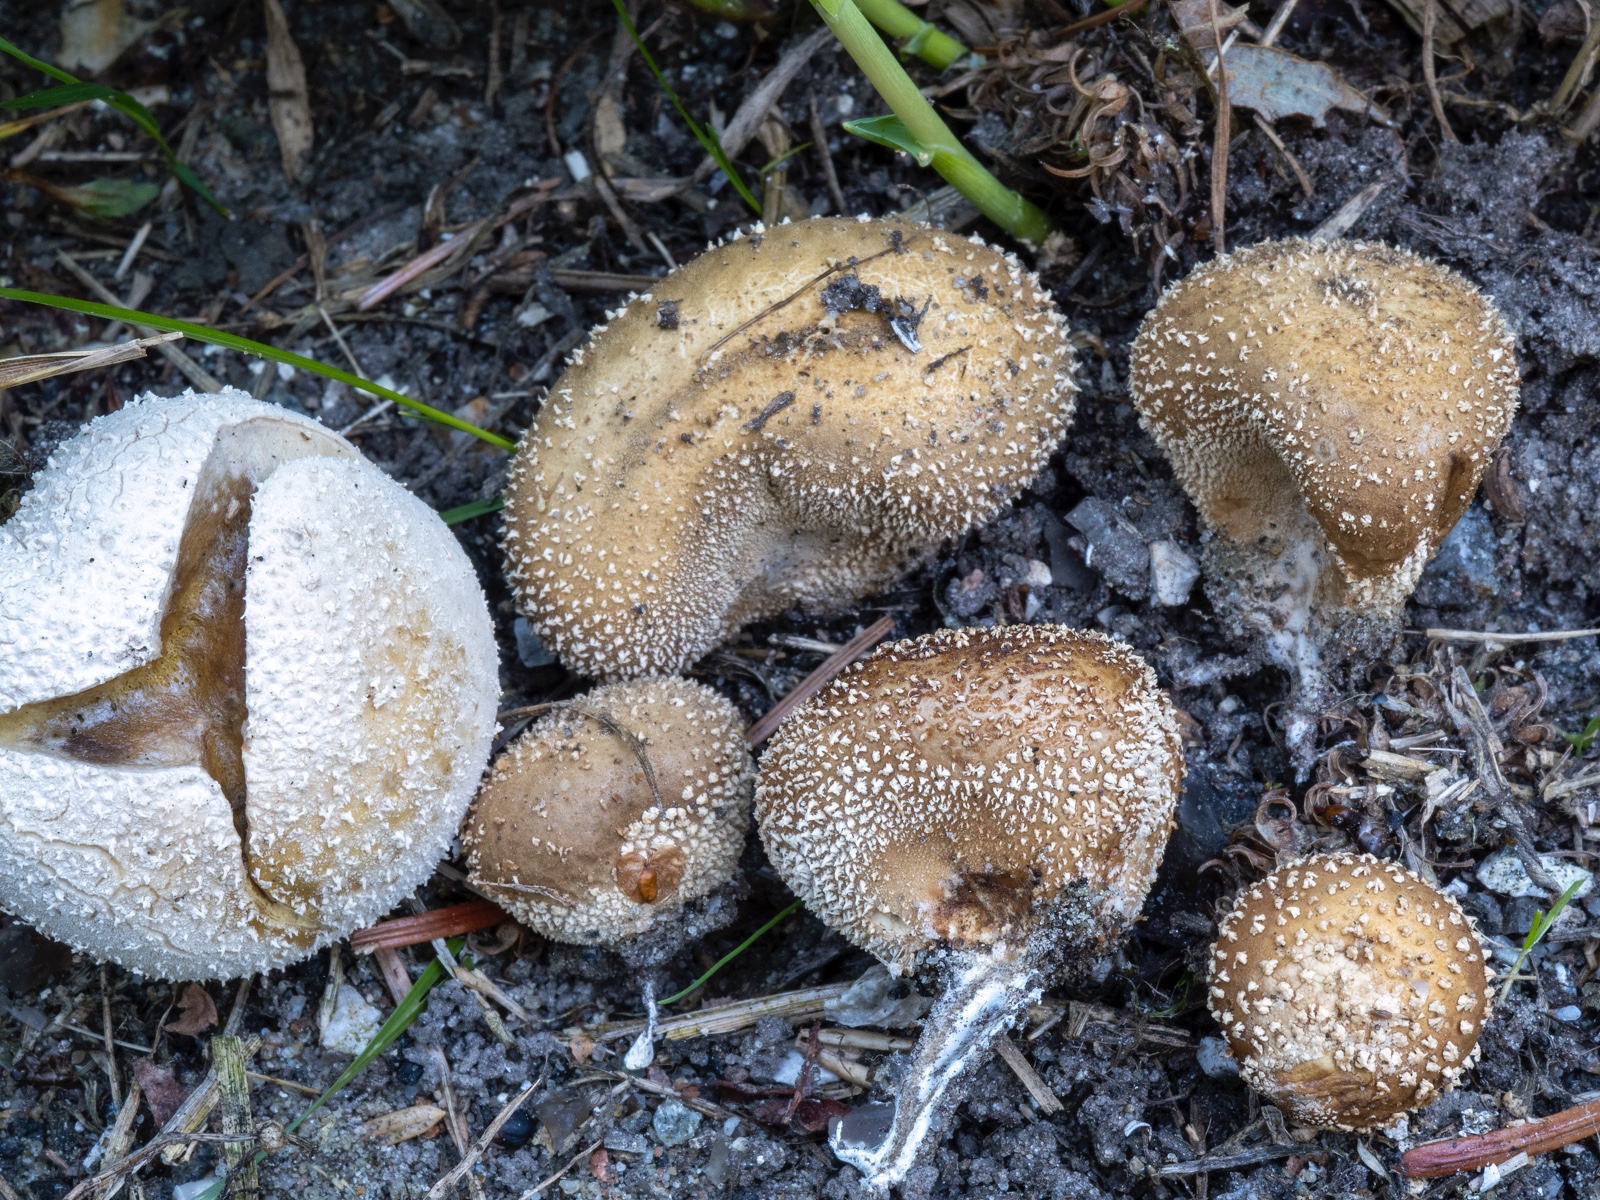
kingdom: Fungi
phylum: Basidiomycota
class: Agaricomycetes
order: Agaricales
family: Lycoperdaceae
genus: Lycoperdon
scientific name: Lycoperdon pratense
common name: flad støvbold
